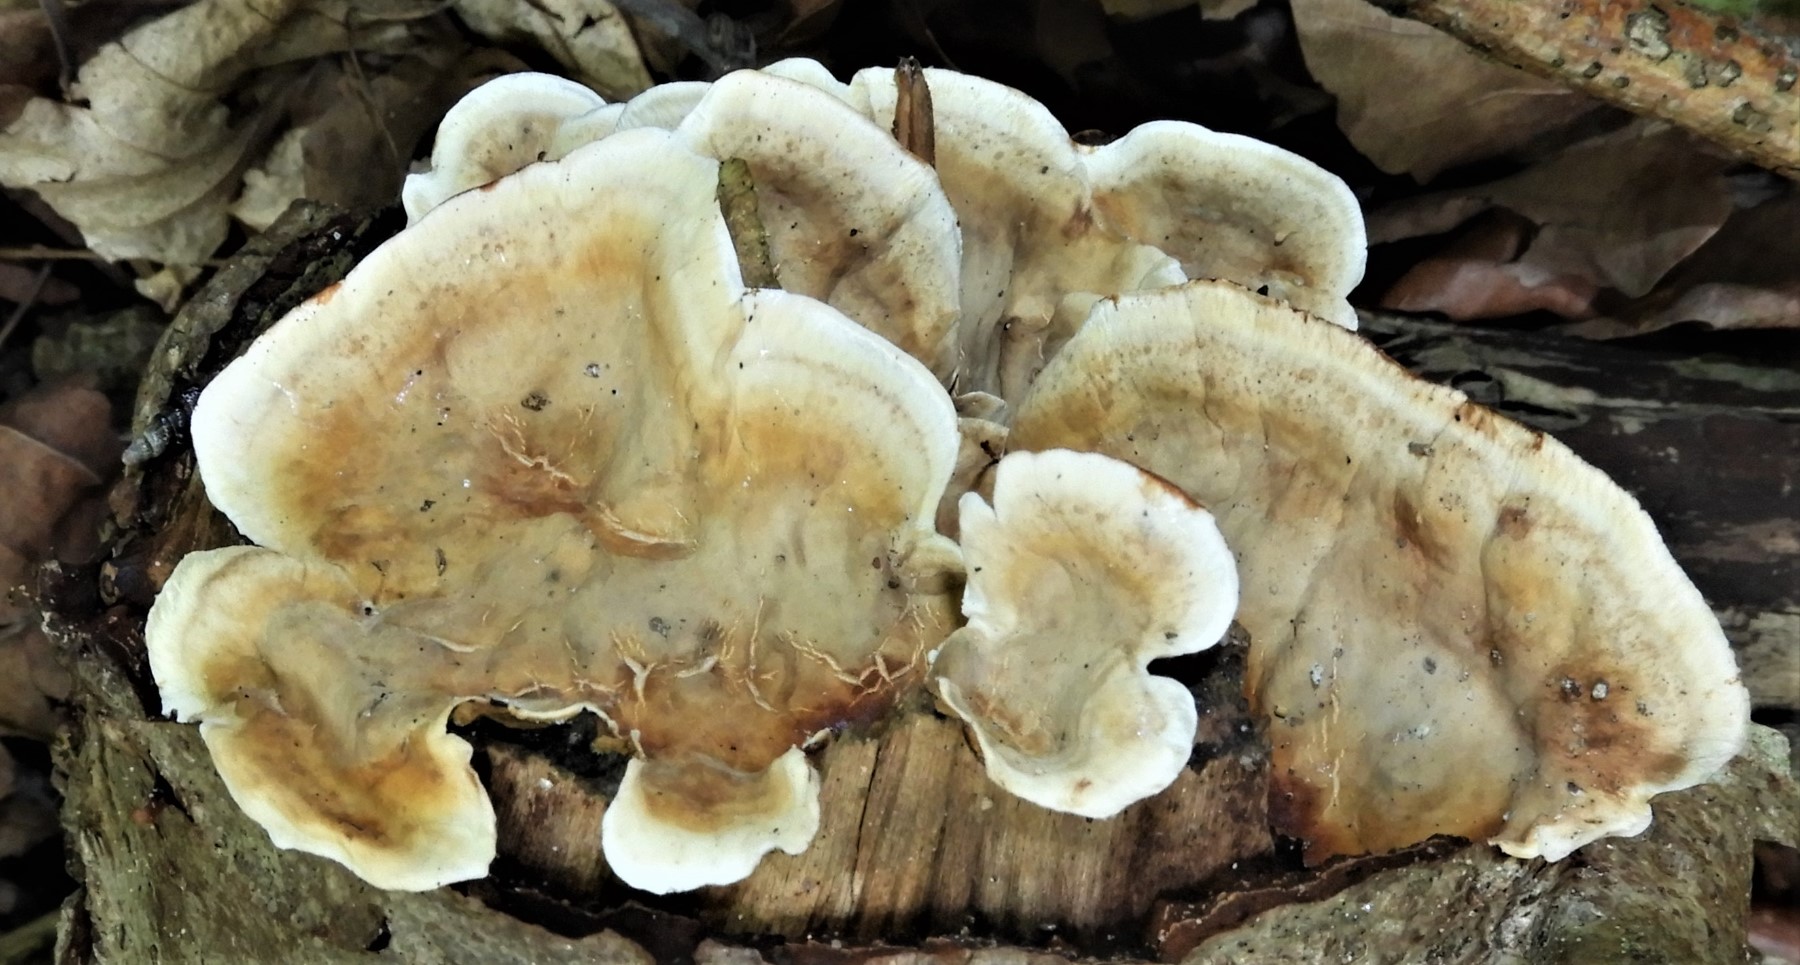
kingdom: Fungi
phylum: Basidiomycota
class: Agaricomycetes
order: Polyporales
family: Polyporaceae
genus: Trametes
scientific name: Trametes versicolor
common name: broget læderporesvamp
